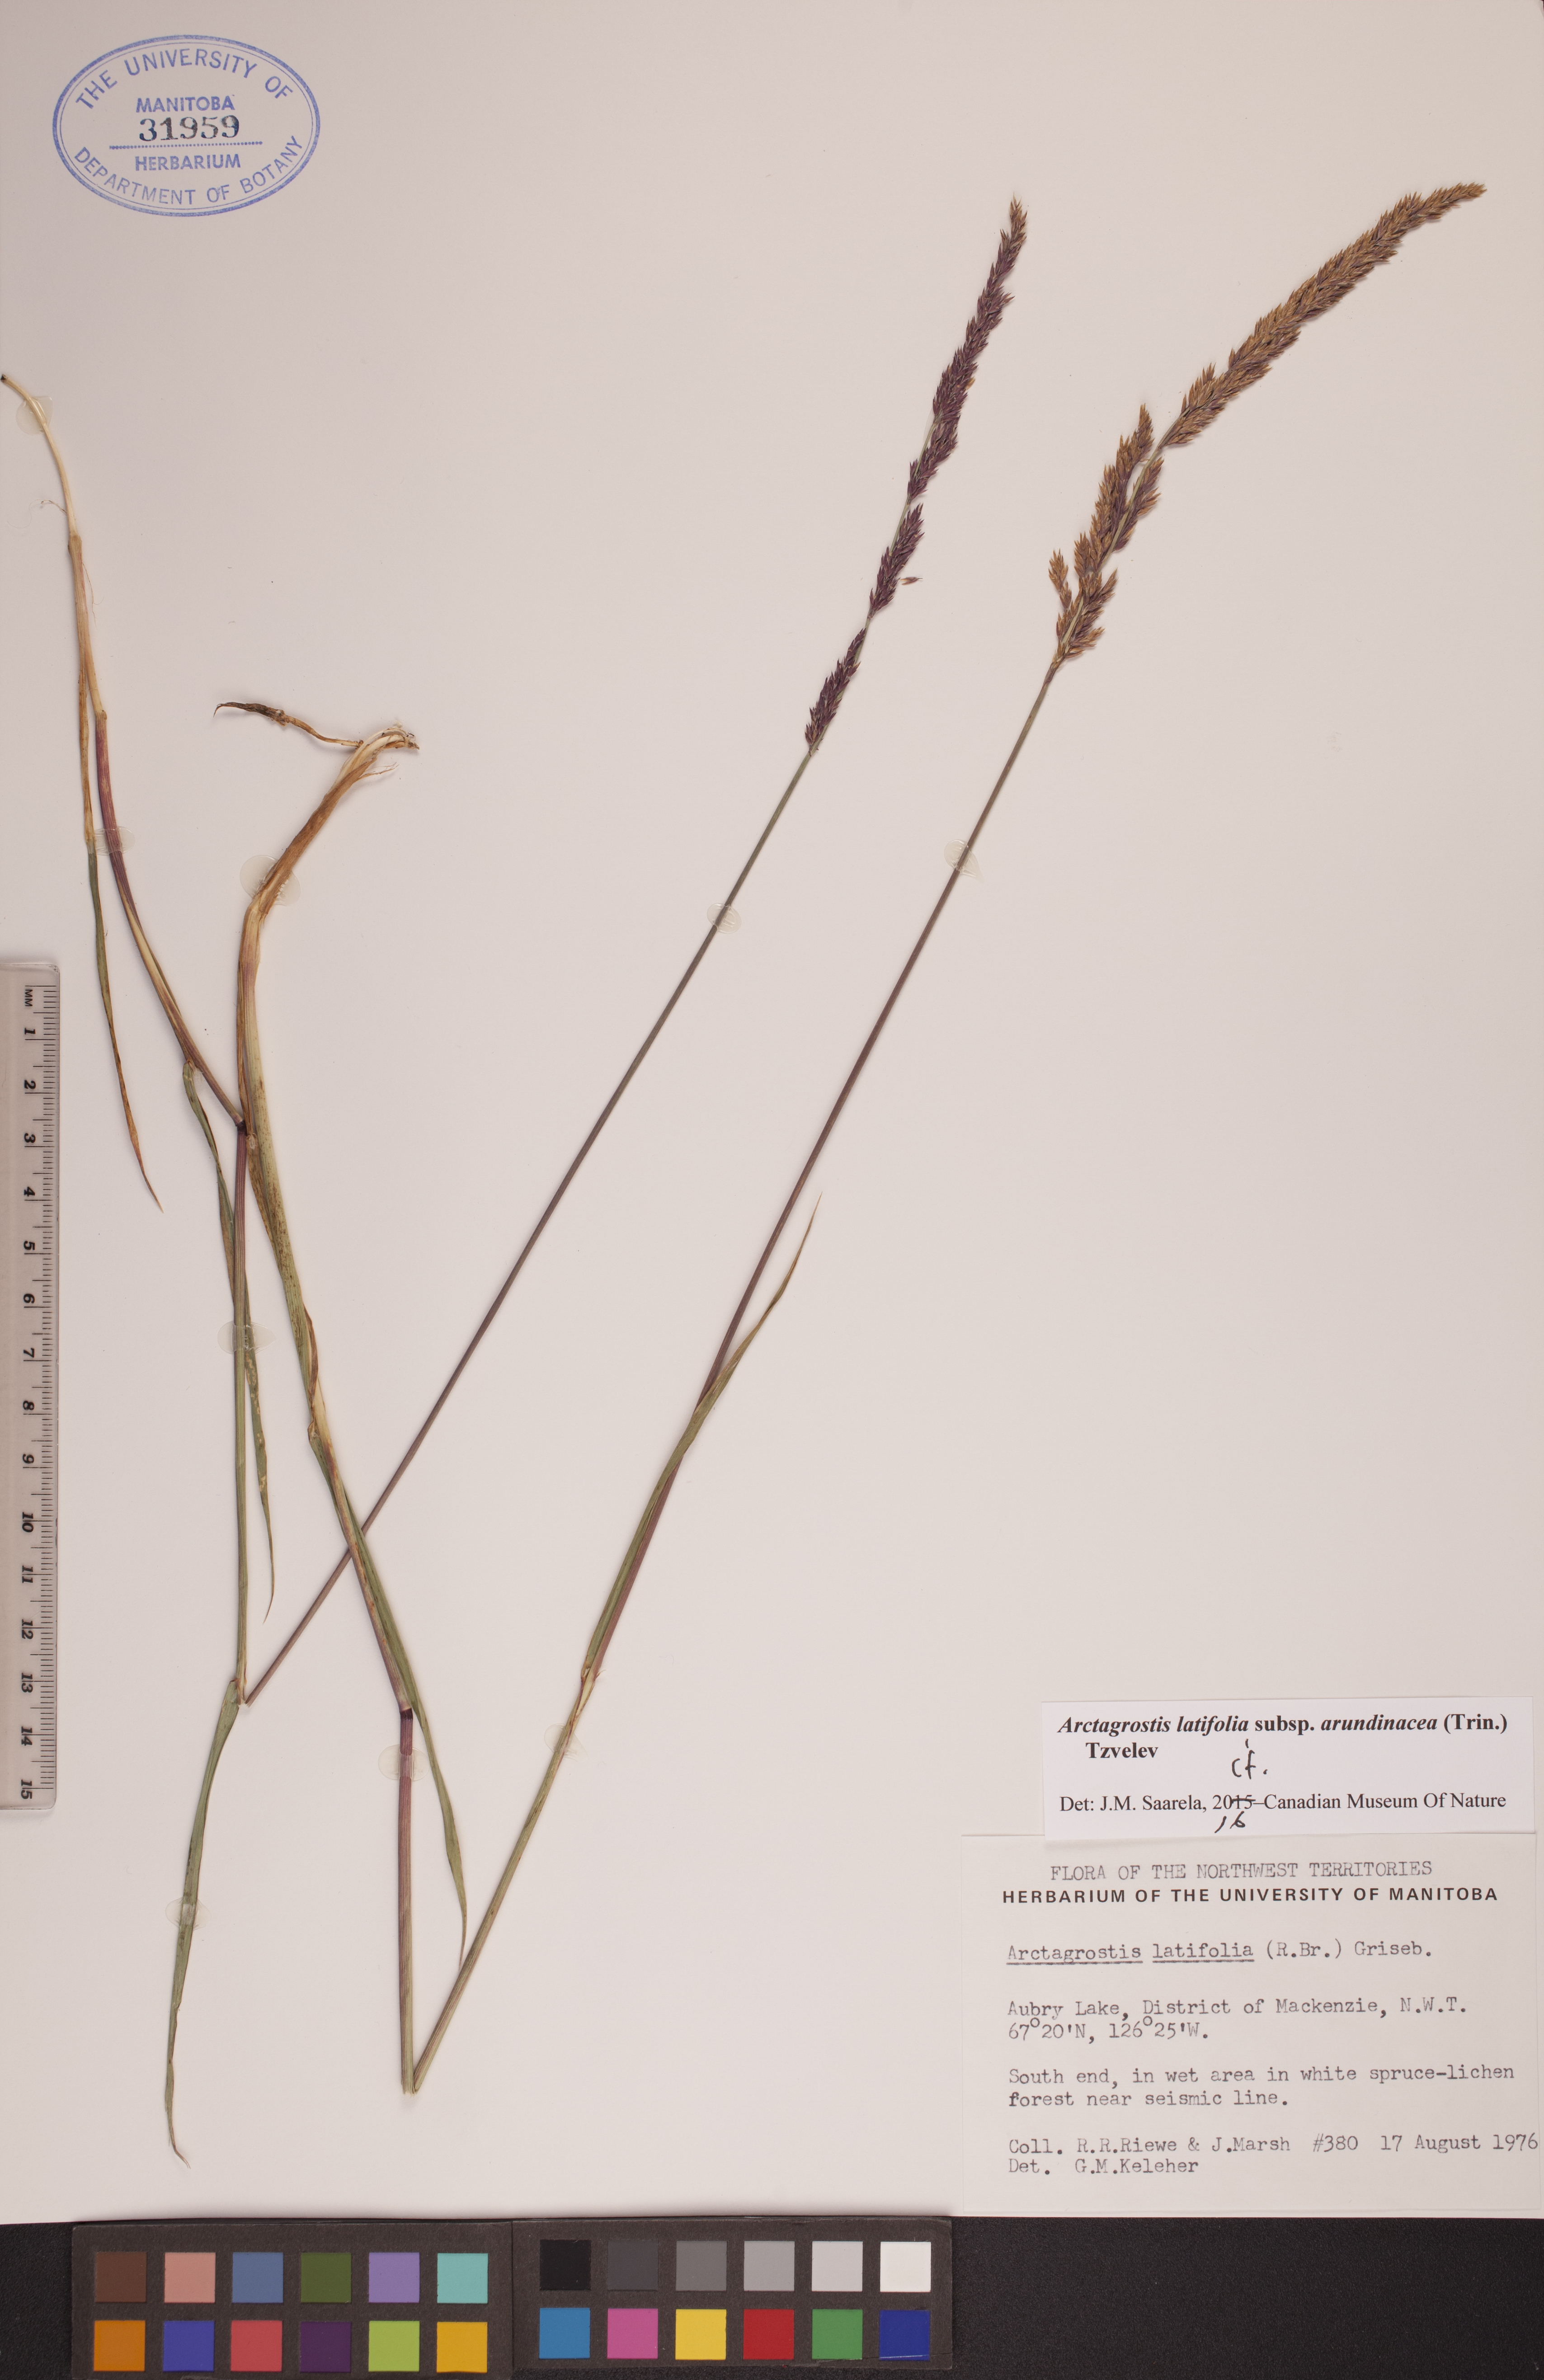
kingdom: Plantae
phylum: Tracheophyta
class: Liliopsida
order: Poales
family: Poaceae
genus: Arctagrostis
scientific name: Arctagrostis latifolia
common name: Arctic grass
